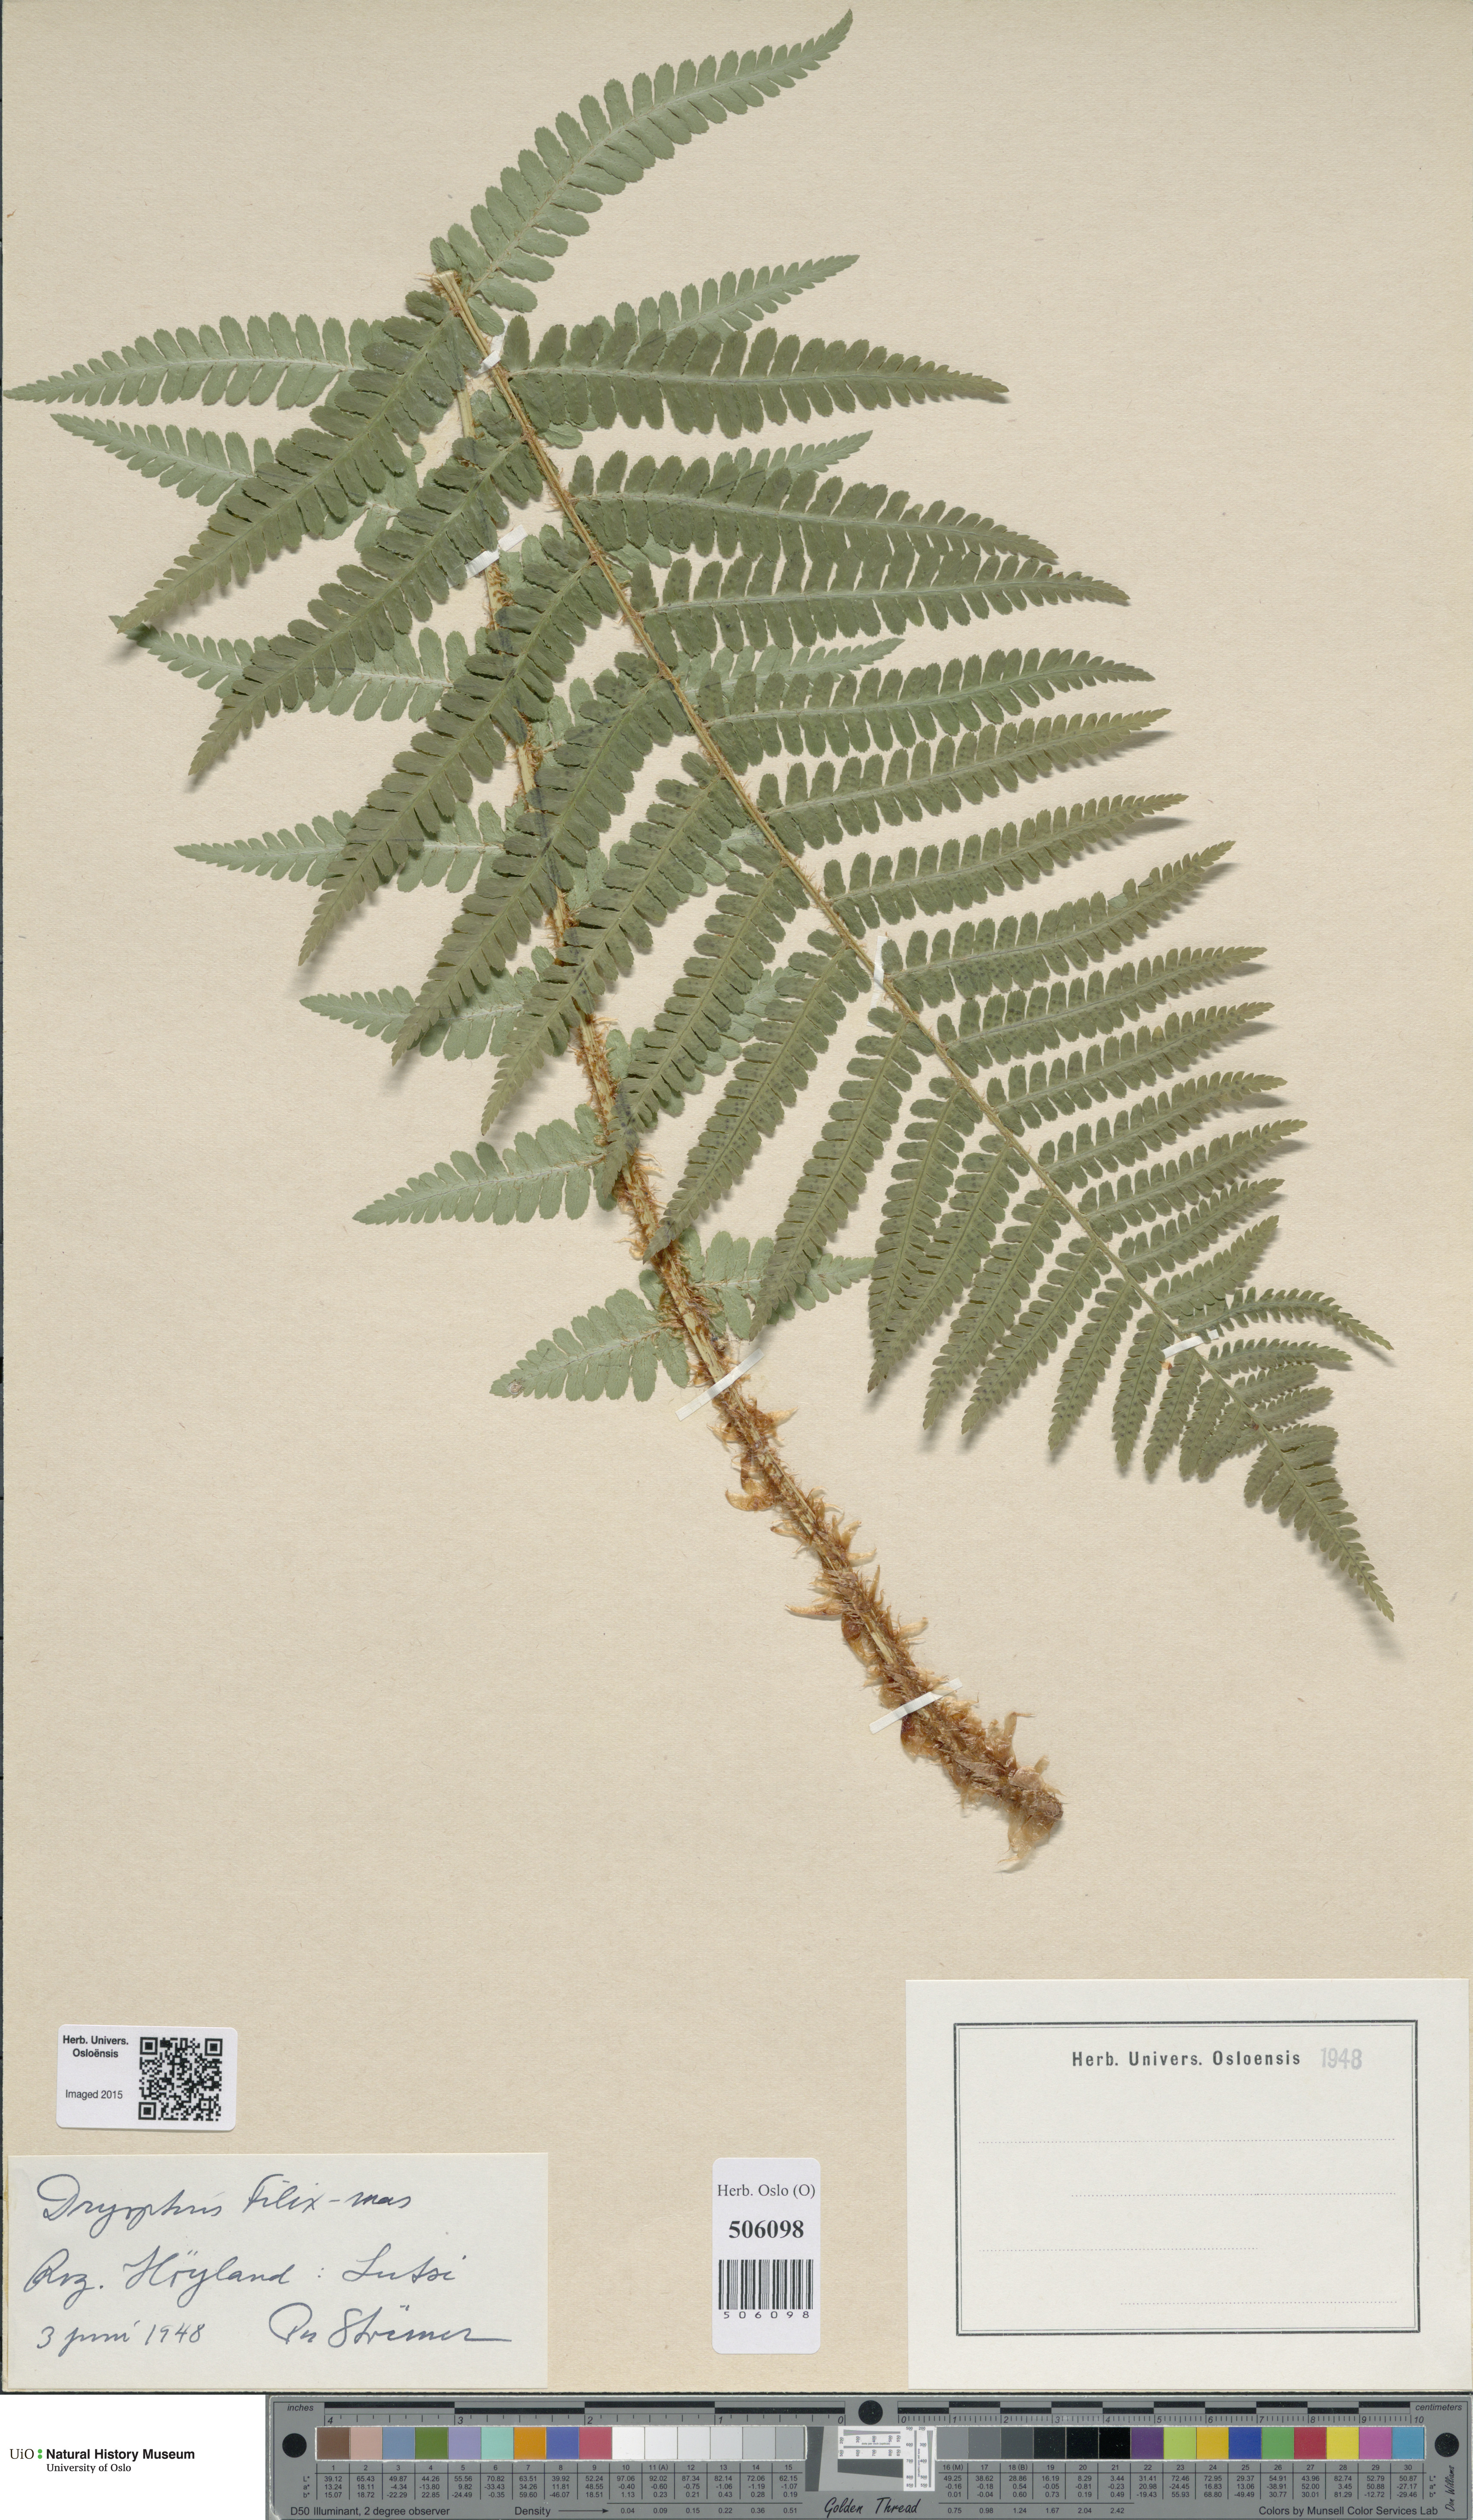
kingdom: Plantae
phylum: Tracheophyta
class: Polypodiopsida
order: Polypodiales
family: Dryopteridaceae
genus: Dryopteris
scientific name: Dryopteris filix-mas
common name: Male fern
